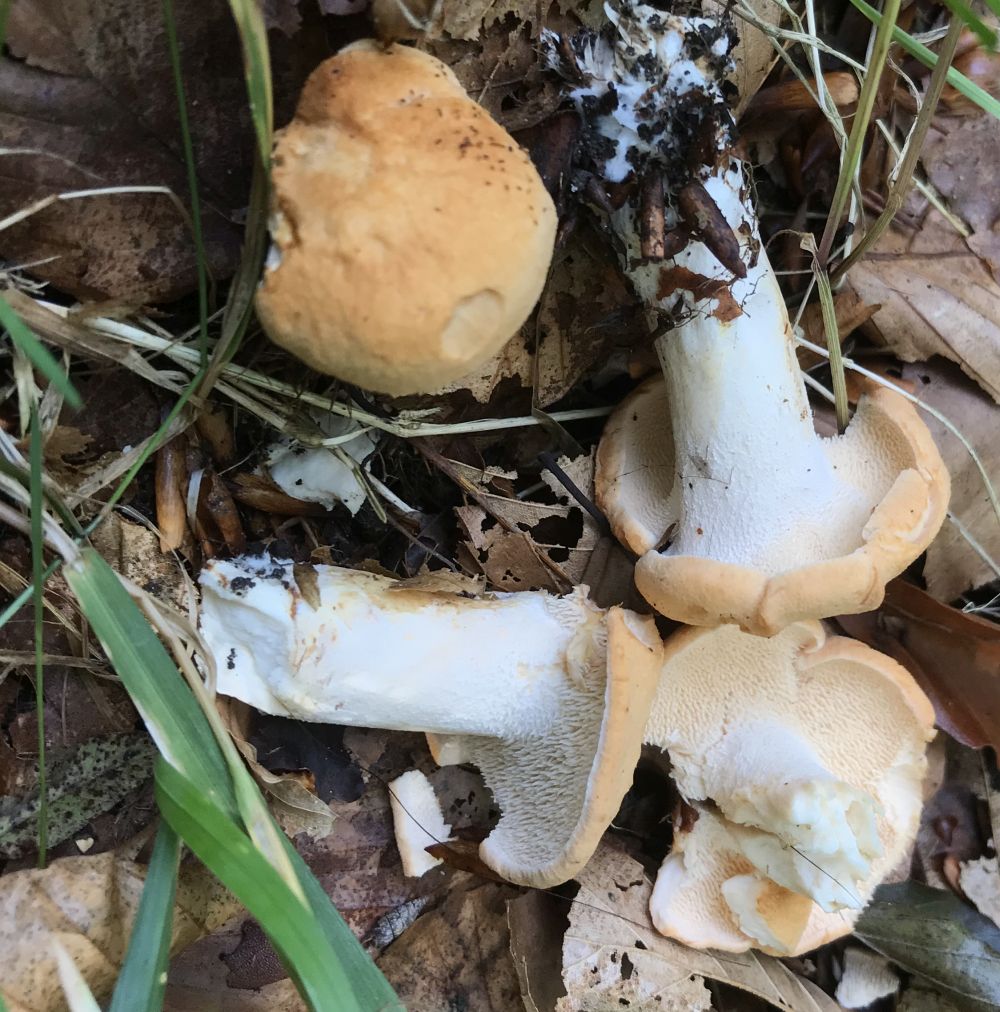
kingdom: Fungi
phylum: Basidiomycota
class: Agaricomycetes
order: Cantharellales
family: Hydnaceae
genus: Hydnum
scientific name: Hydnum
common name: pigsvamp
